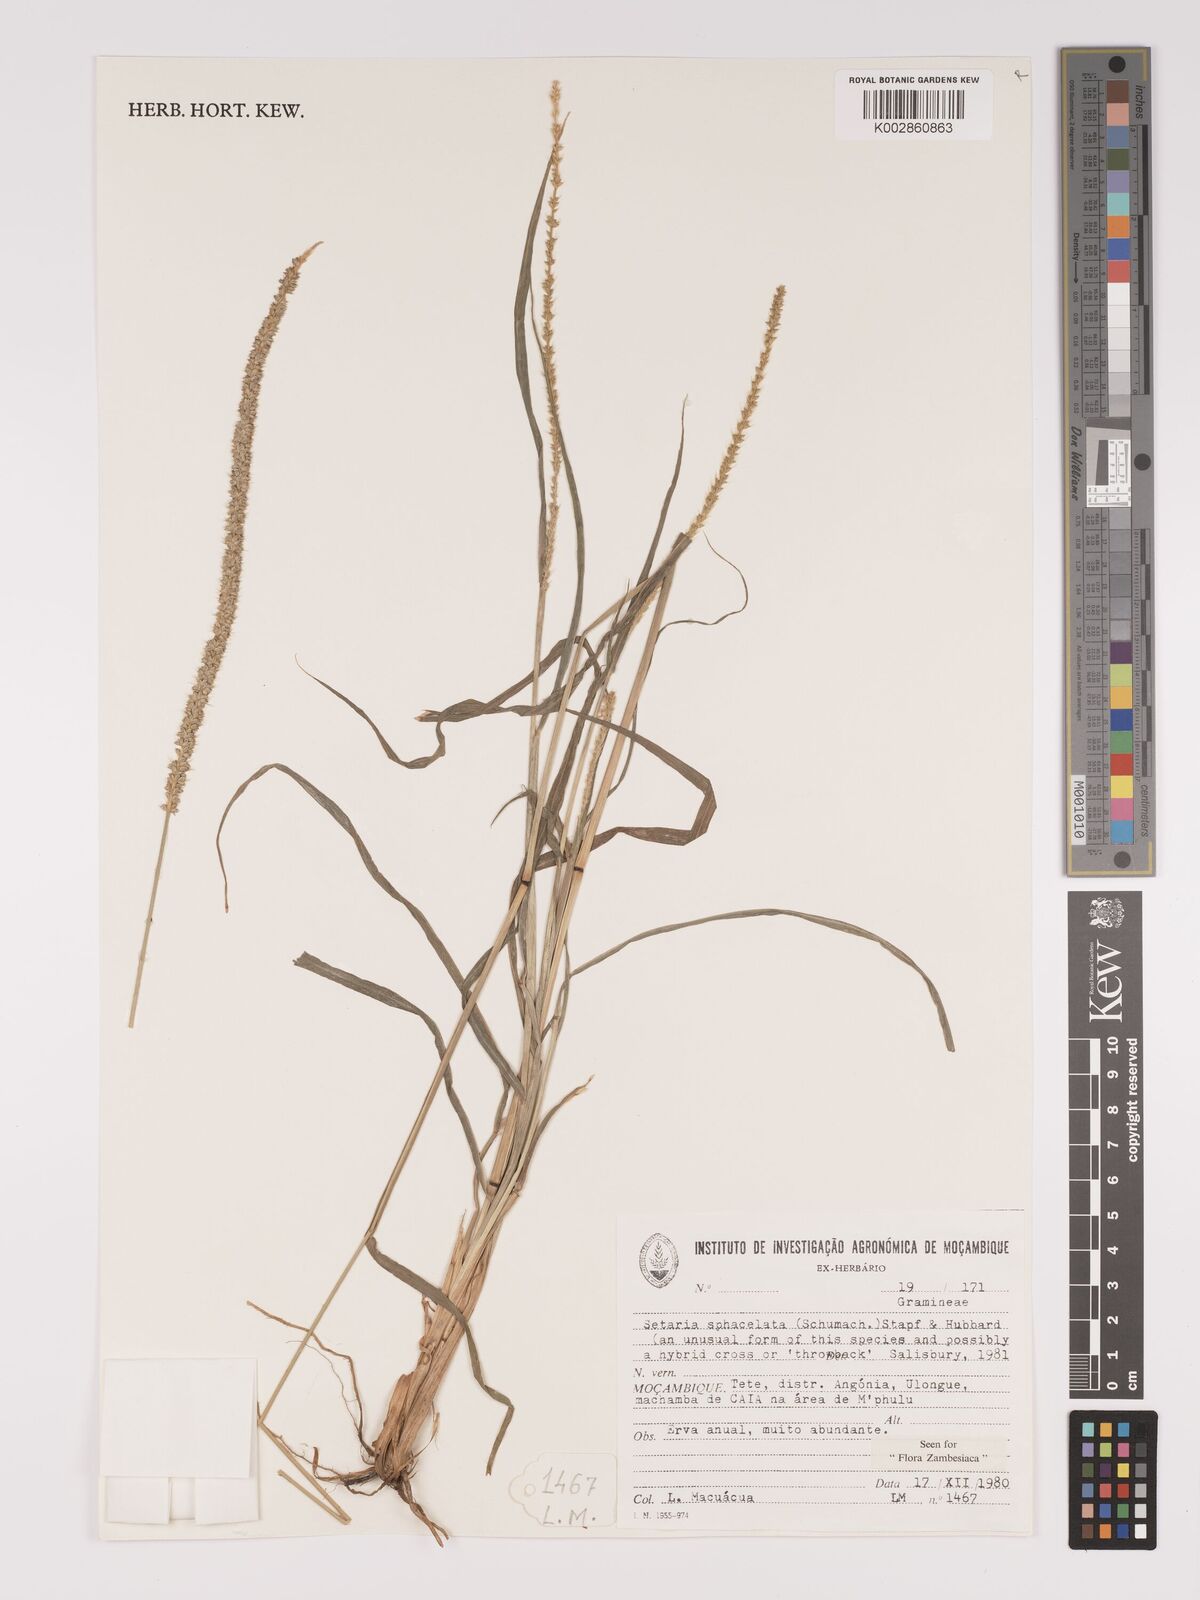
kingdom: Plantae
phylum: Tracheophyta
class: Liliopsida
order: Poales
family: Poaceae
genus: Setaria
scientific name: Setaria sphacelata
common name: African bristlegrass
